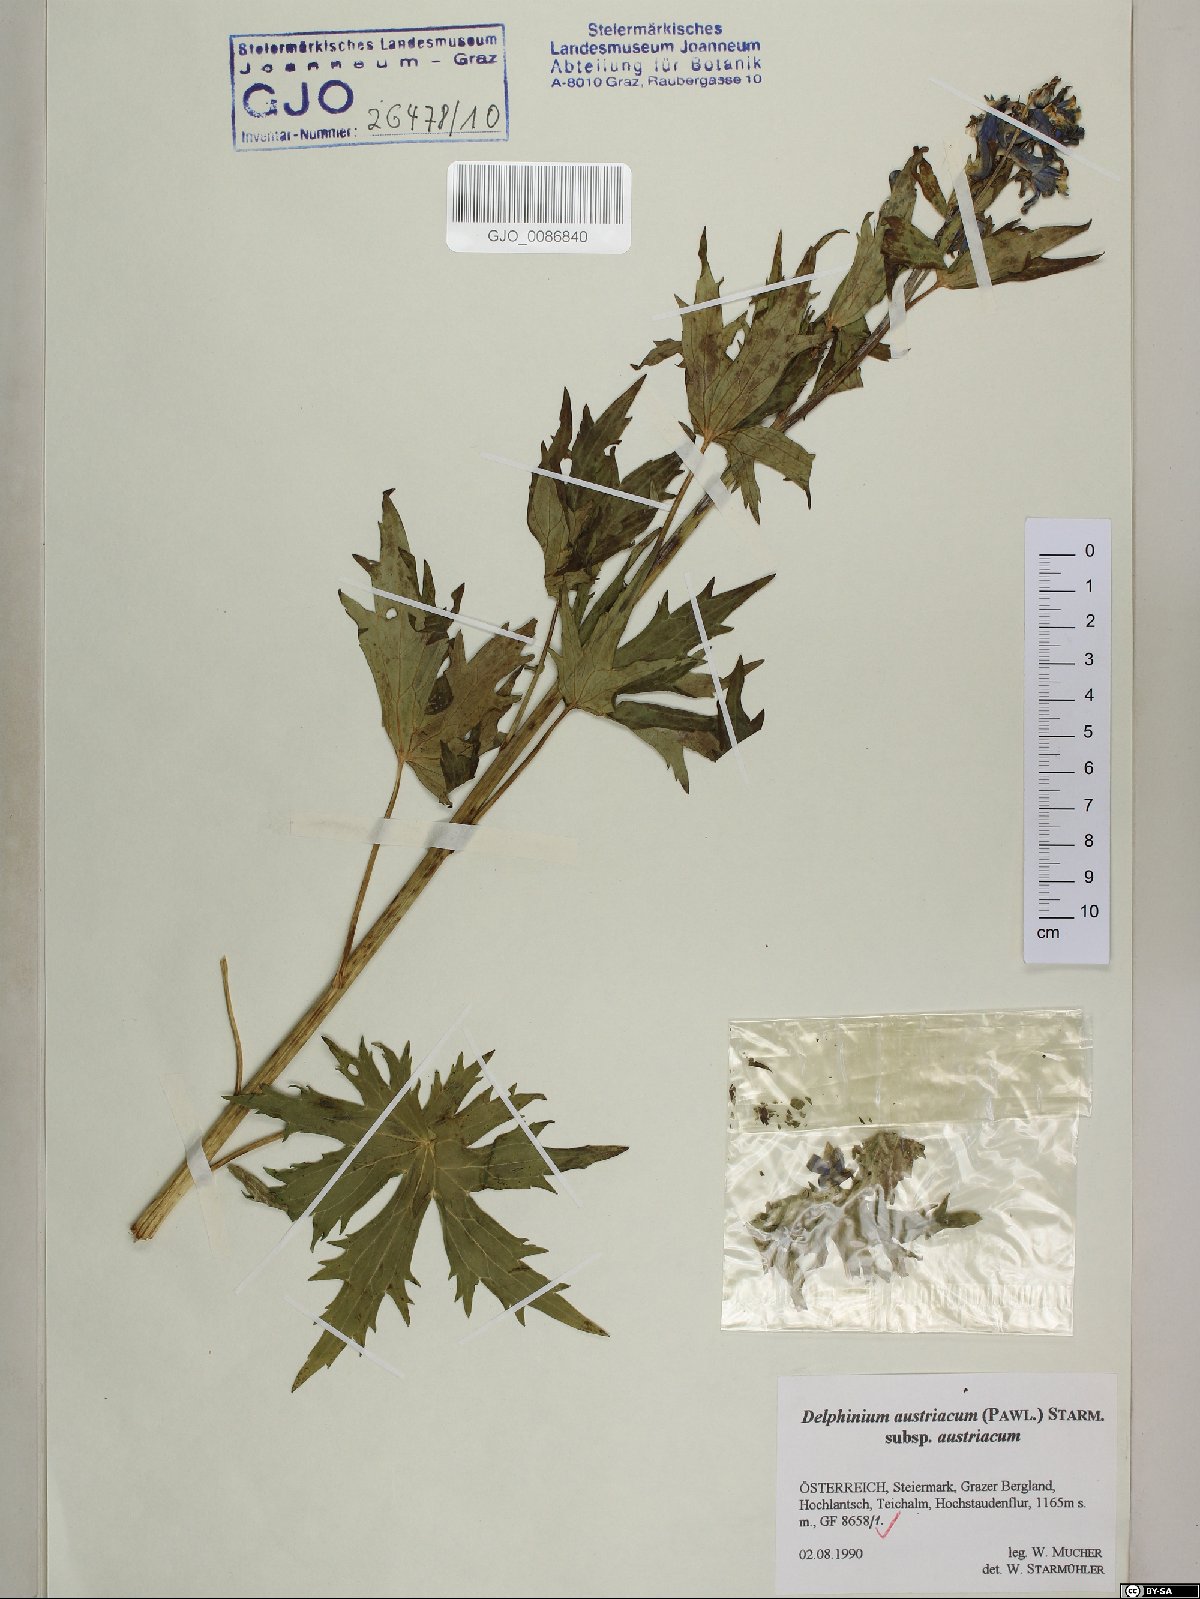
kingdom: Plantae
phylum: Tracheophyta
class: Magnoliopsida
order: Ranunculales
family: Ranunculaceae
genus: Delphinium
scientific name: Delphinium austriacum
